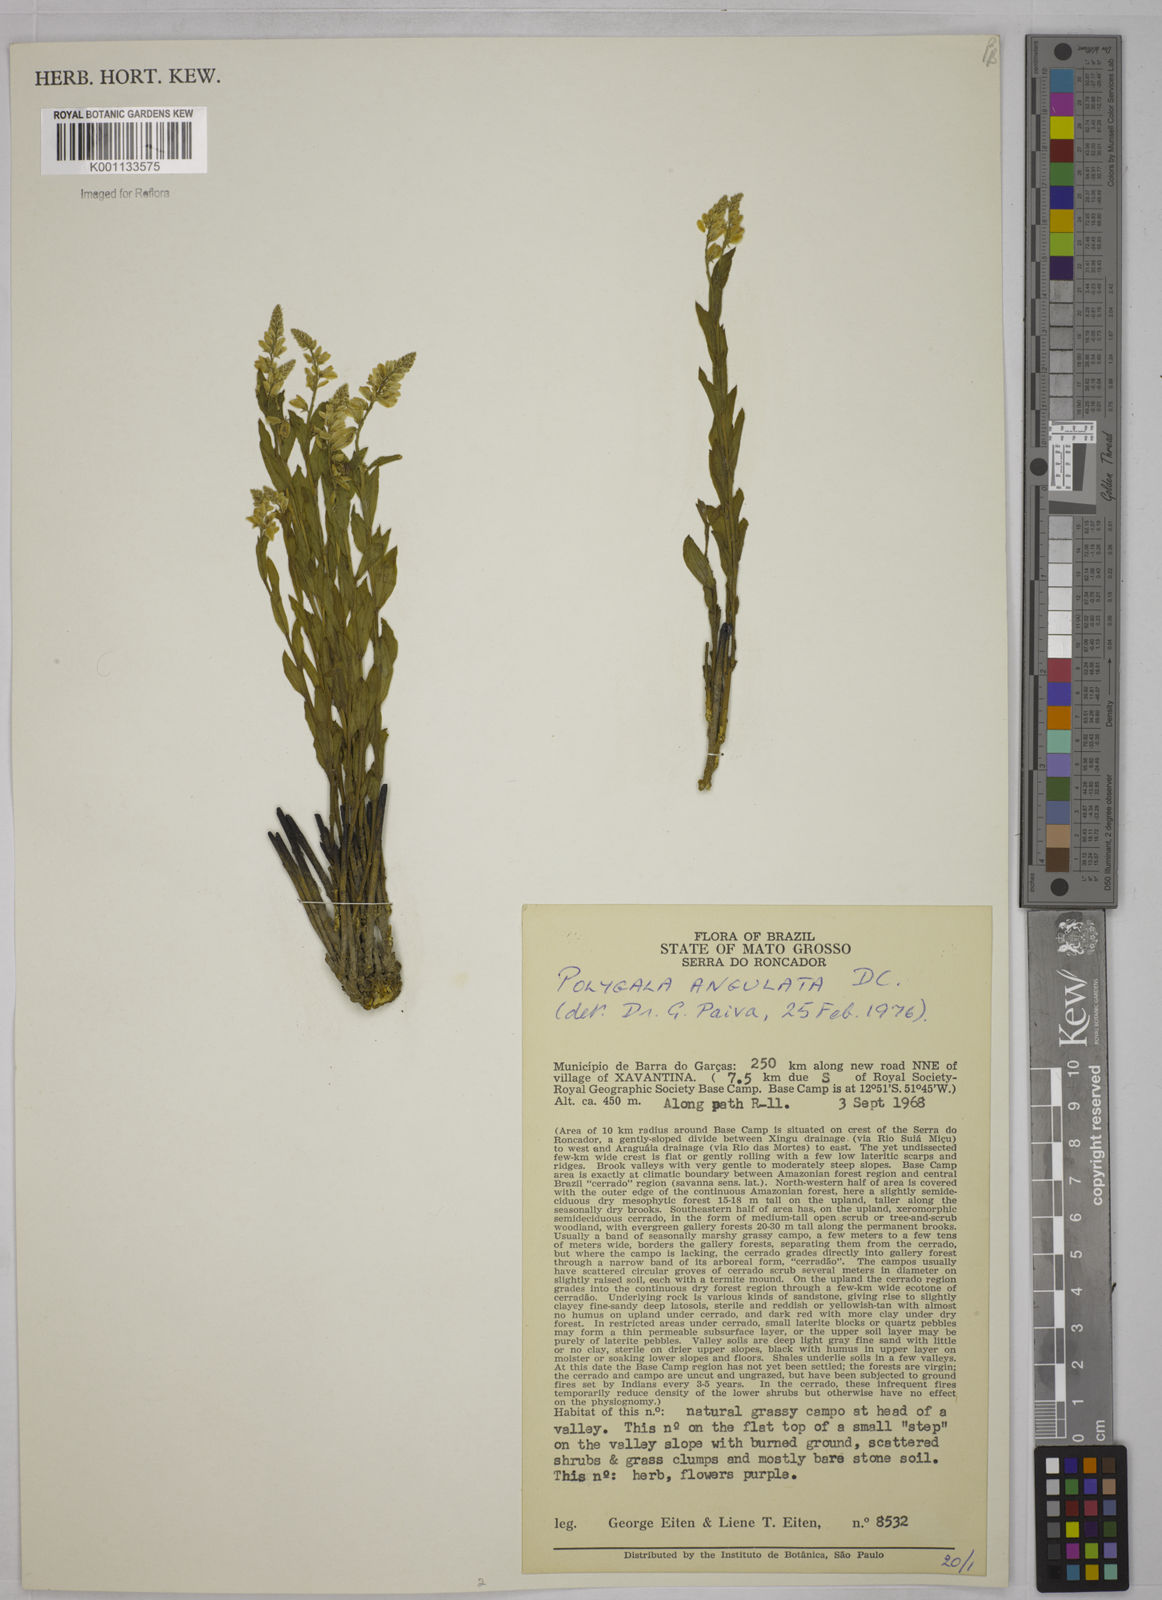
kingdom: Plantae
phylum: Tracheophyta
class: Magnoliopsida
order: Fabales
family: Polygalaceae
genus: Polygala
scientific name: Polygala poaya
